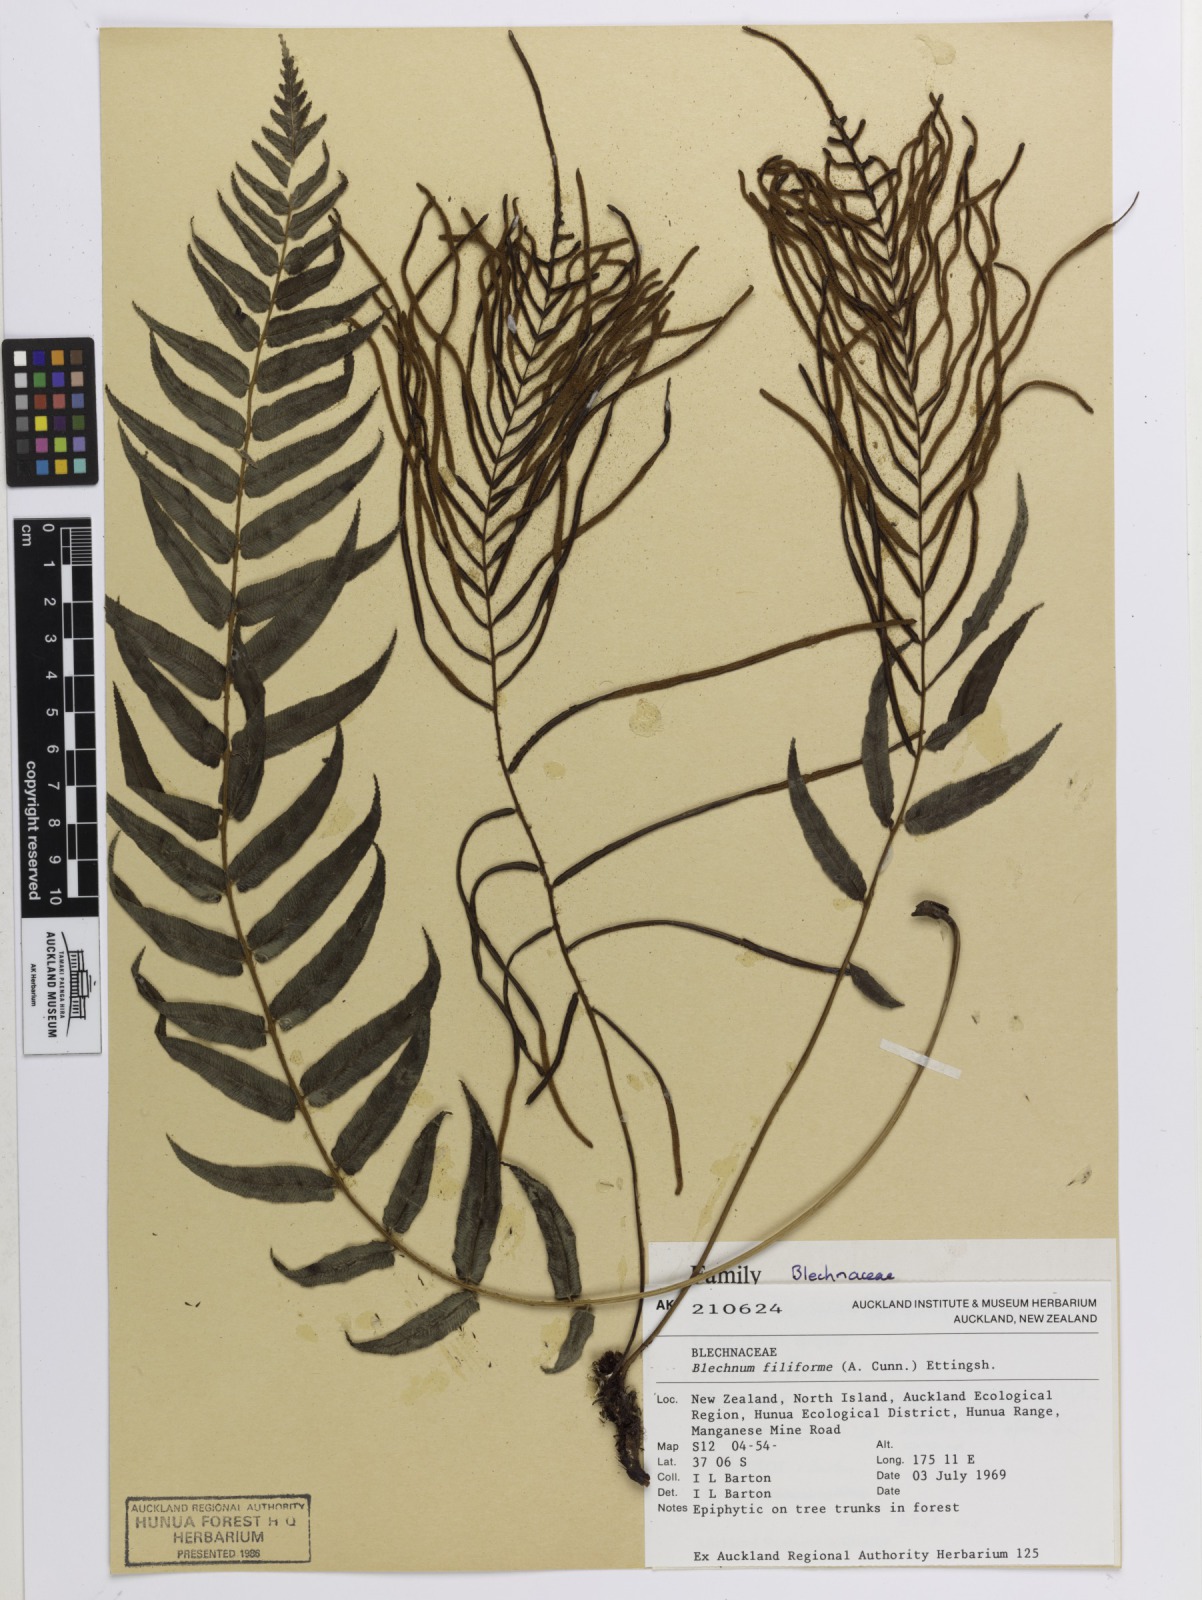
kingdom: Plantae
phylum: Tracheophyta
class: Polypodiopsida
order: Polypodiales
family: Blechnaceae
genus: Icarus
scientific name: Icarus filiformis
